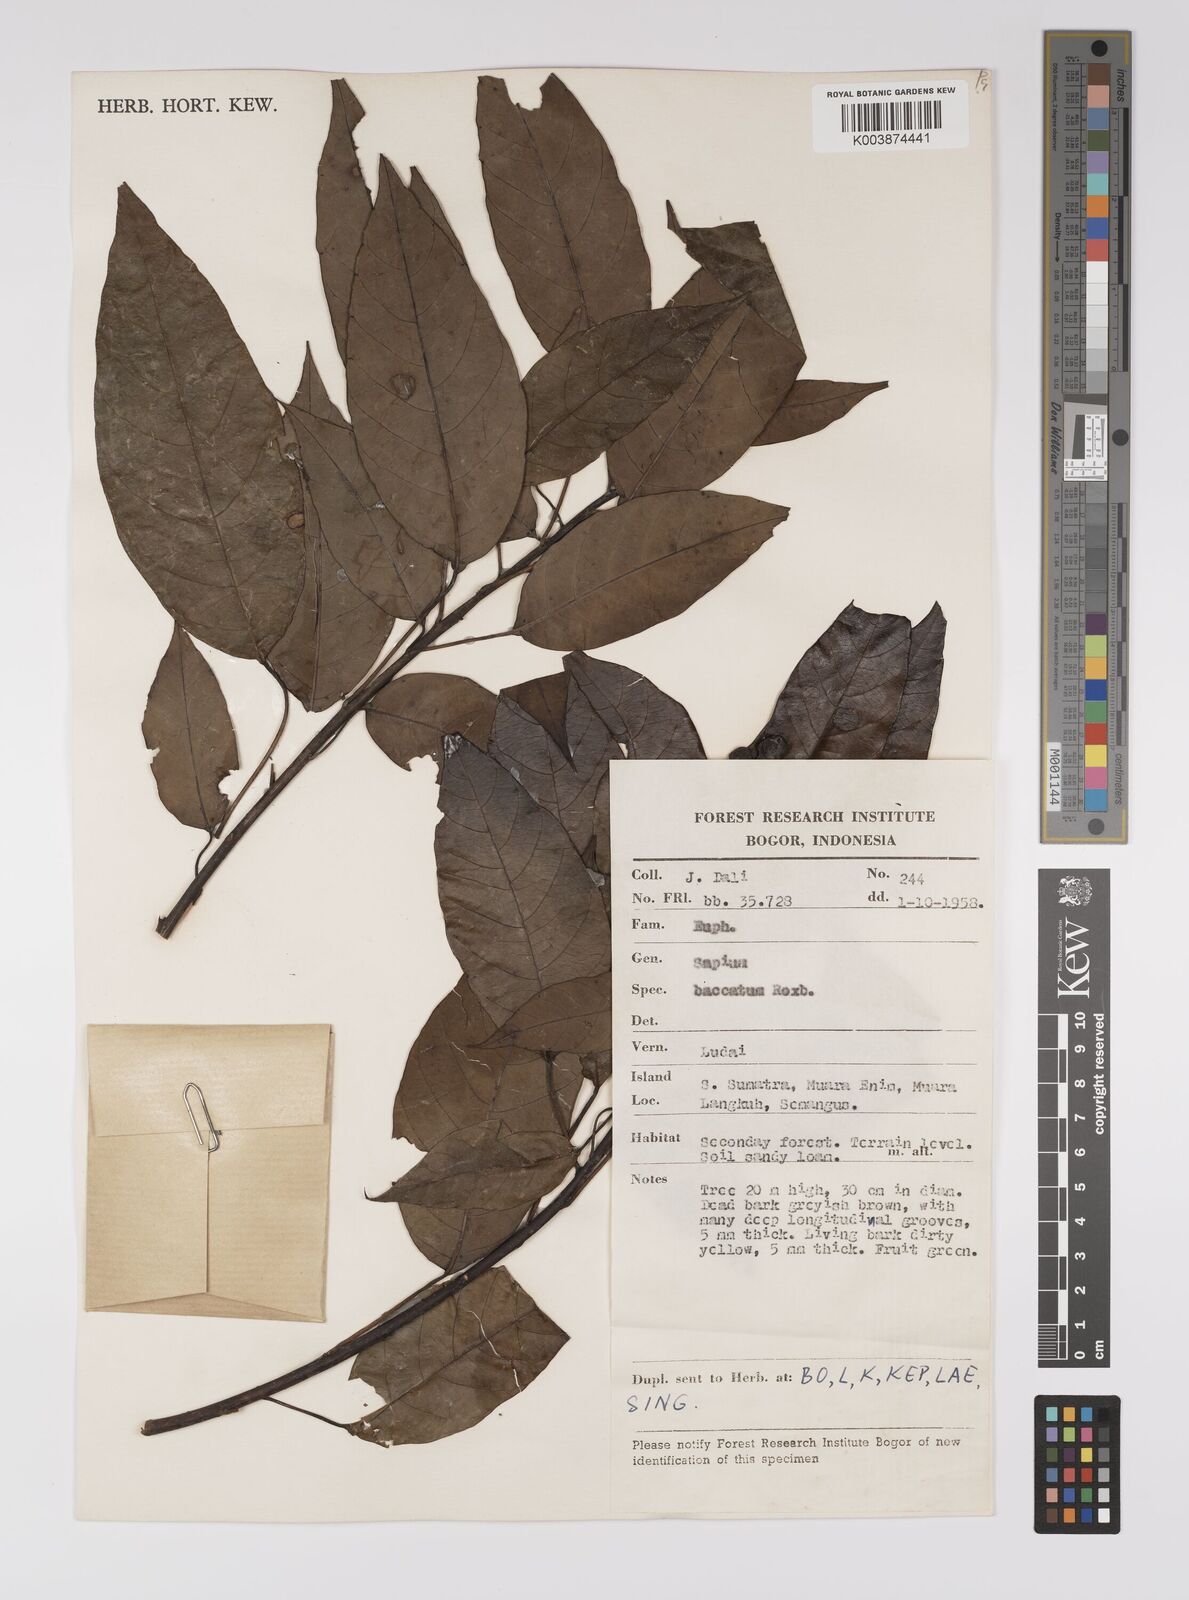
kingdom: Plantae
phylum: Tracheophyta
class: Magnoliopsida
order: Malpighiales
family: Euphorbiaceae
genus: Balakata
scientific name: Balakata baccata
